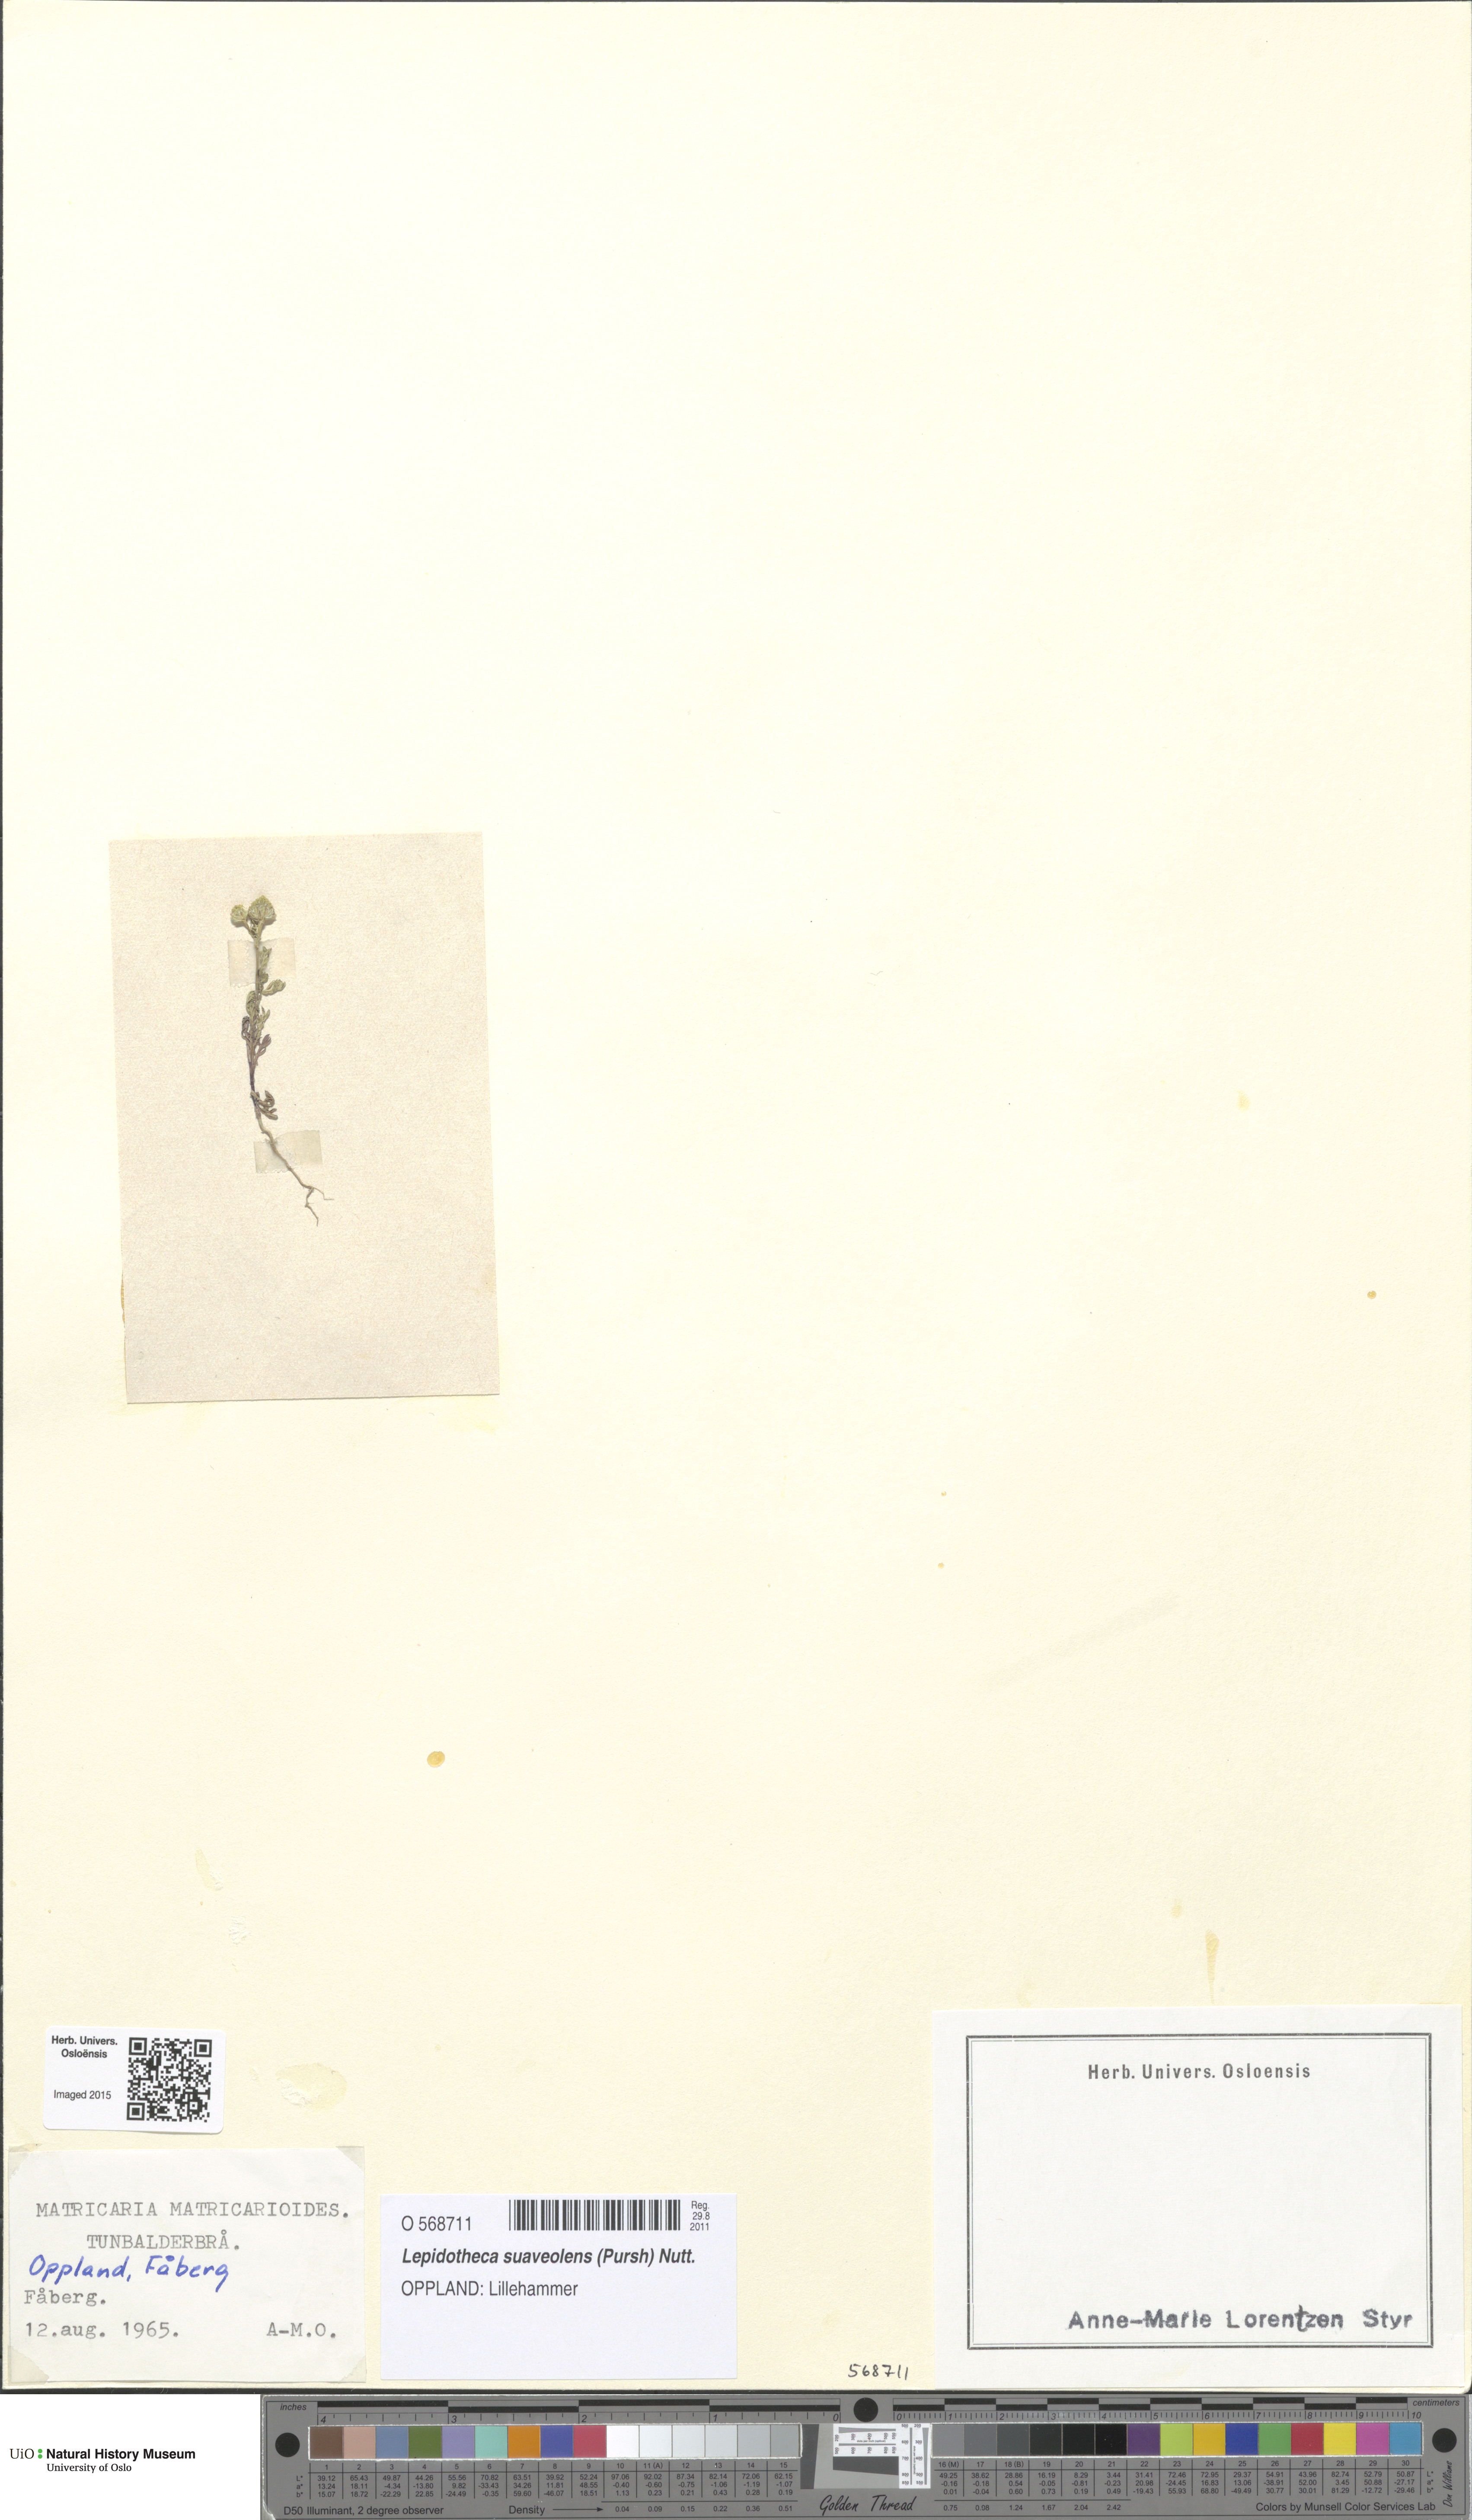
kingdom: Plantae
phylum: Tracheophyta
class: Magnoliopsida
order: Asterales
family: Asteraceae
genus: Matricaria
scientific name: Matricaria discoidea
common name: Disc mayweed
